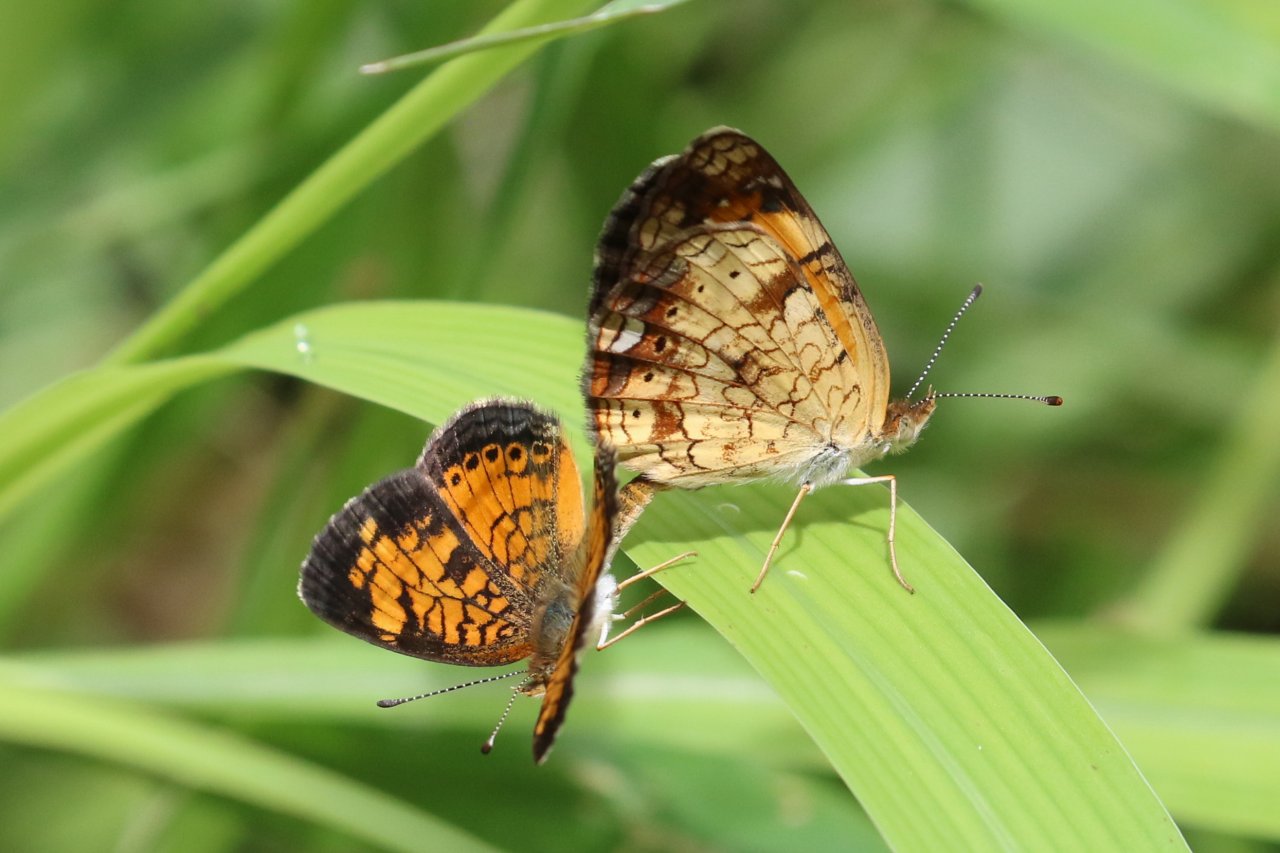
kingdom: Animalia
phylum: Arthropoda
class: Insecta
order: Lepidoptera
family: Nymphalidae
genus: Phyciodes
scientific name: Phyciodes tharos
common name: Pearl Crescent
